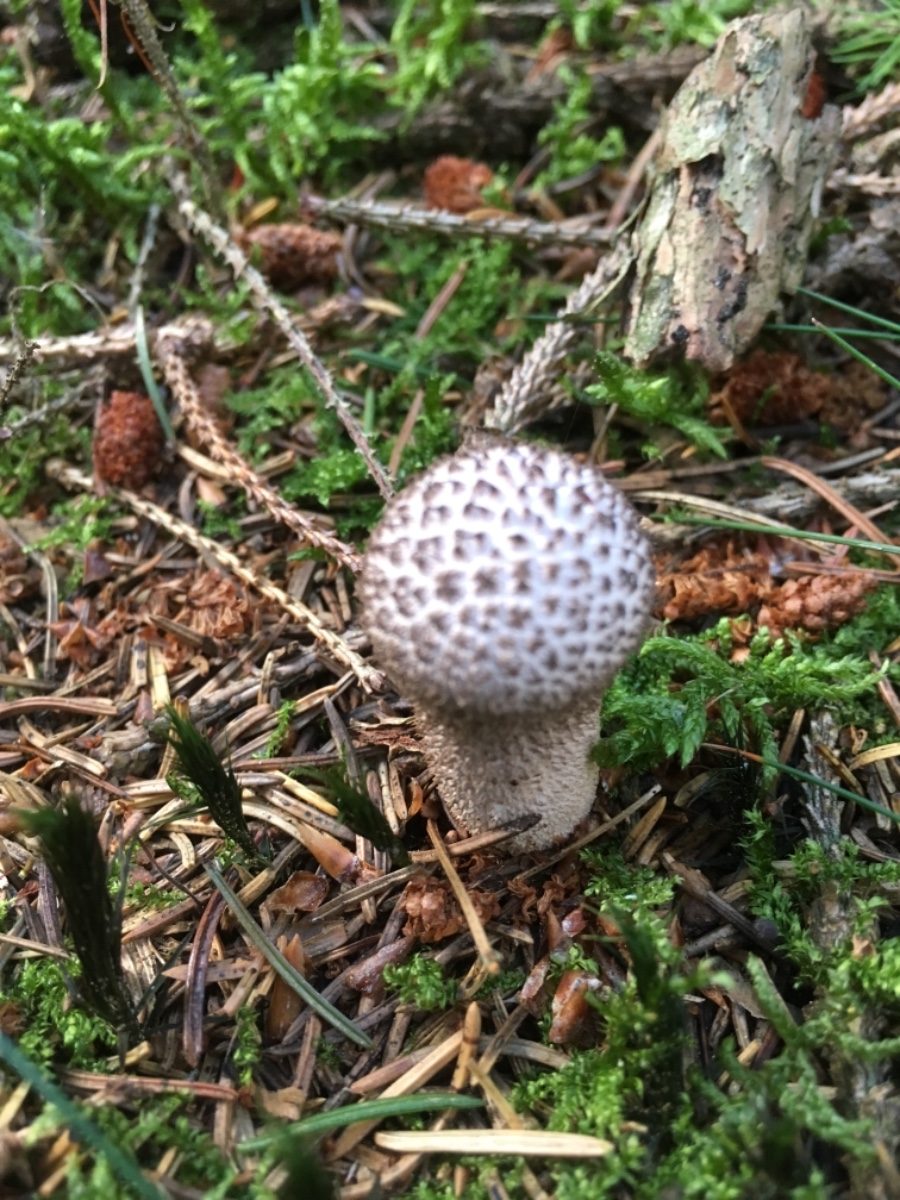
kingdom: Fungi
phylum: Basidiomycota
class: Agaricomycetes
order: Agaricales
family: Lycoperdaceae
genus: Lycoperdon
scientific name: Lycoperdon nigrescens
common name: sortagtig støvbold
